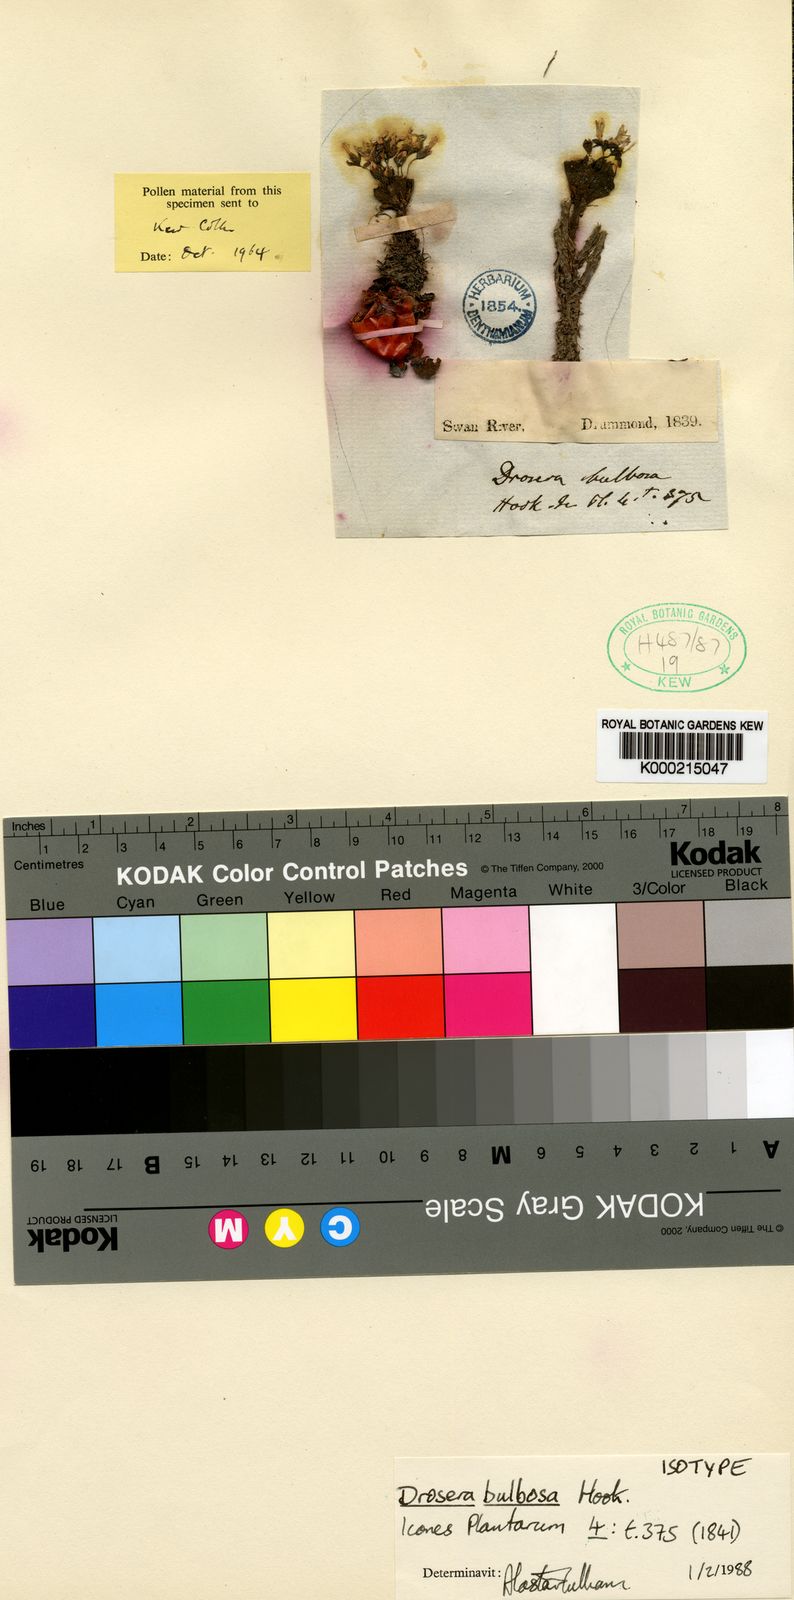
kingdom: Plantae
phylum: Tracheophyta
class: Magnoliopsida
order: Caryophyllales
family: Droseraceae
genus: Drosera
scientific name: Drosera bulbosa
